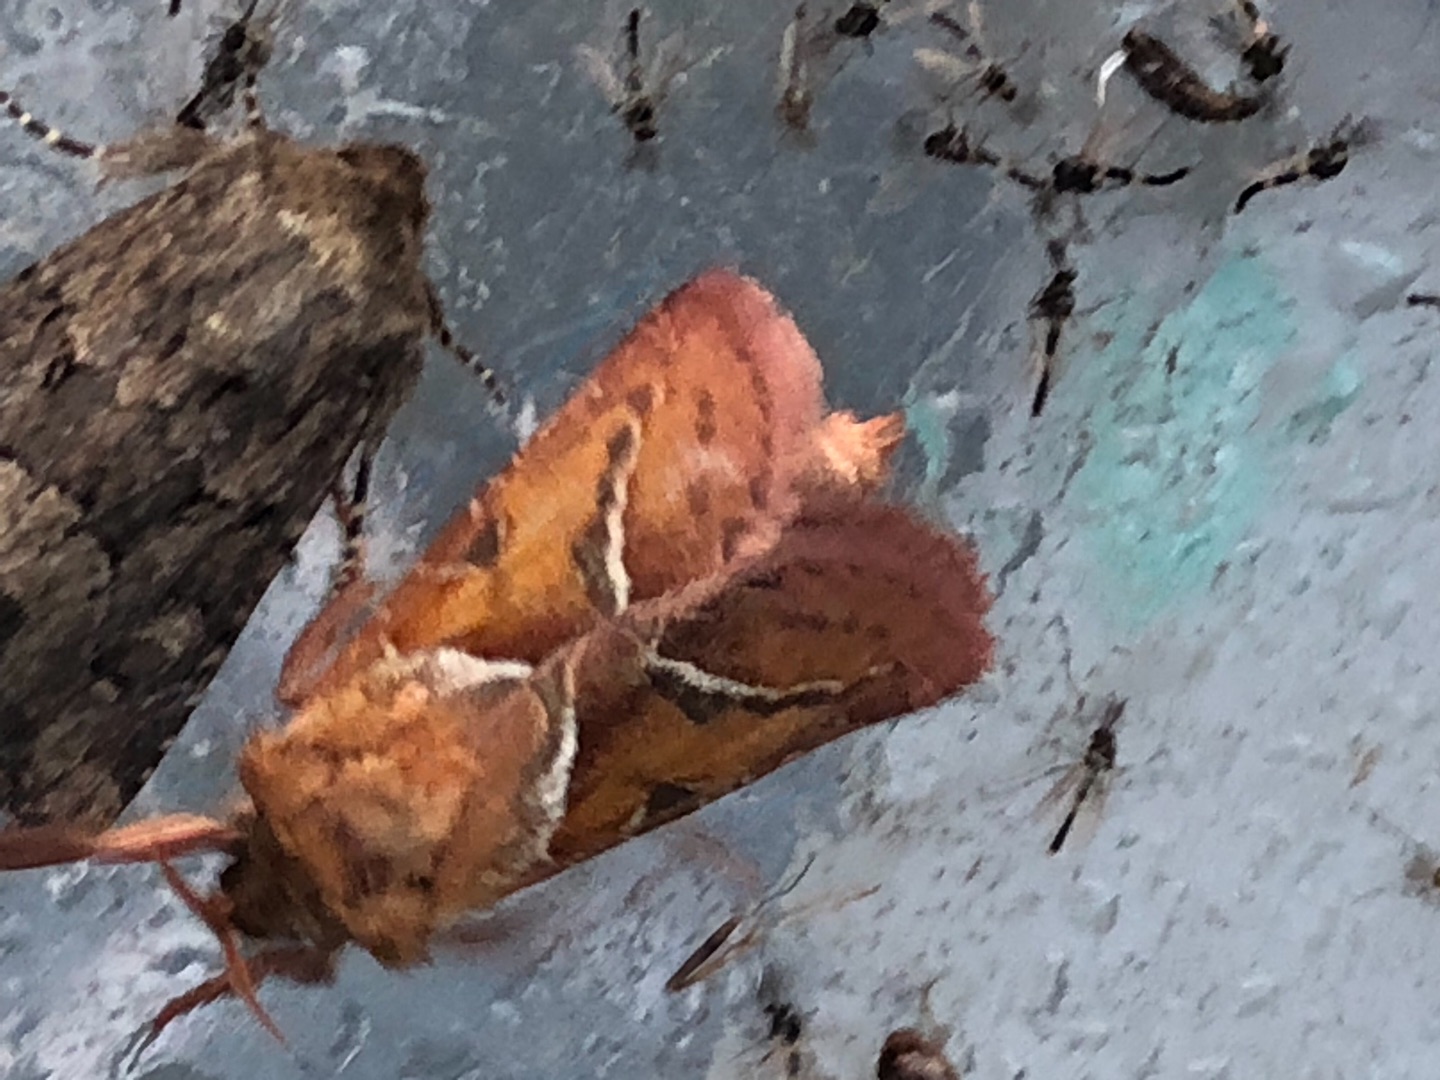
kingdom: Animalia
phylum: Arthropoda
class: Insecta
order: Lepidoptera
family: Hepialidae
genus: Triodia
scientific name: Triodia sylvina
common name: Skræpperodæder
